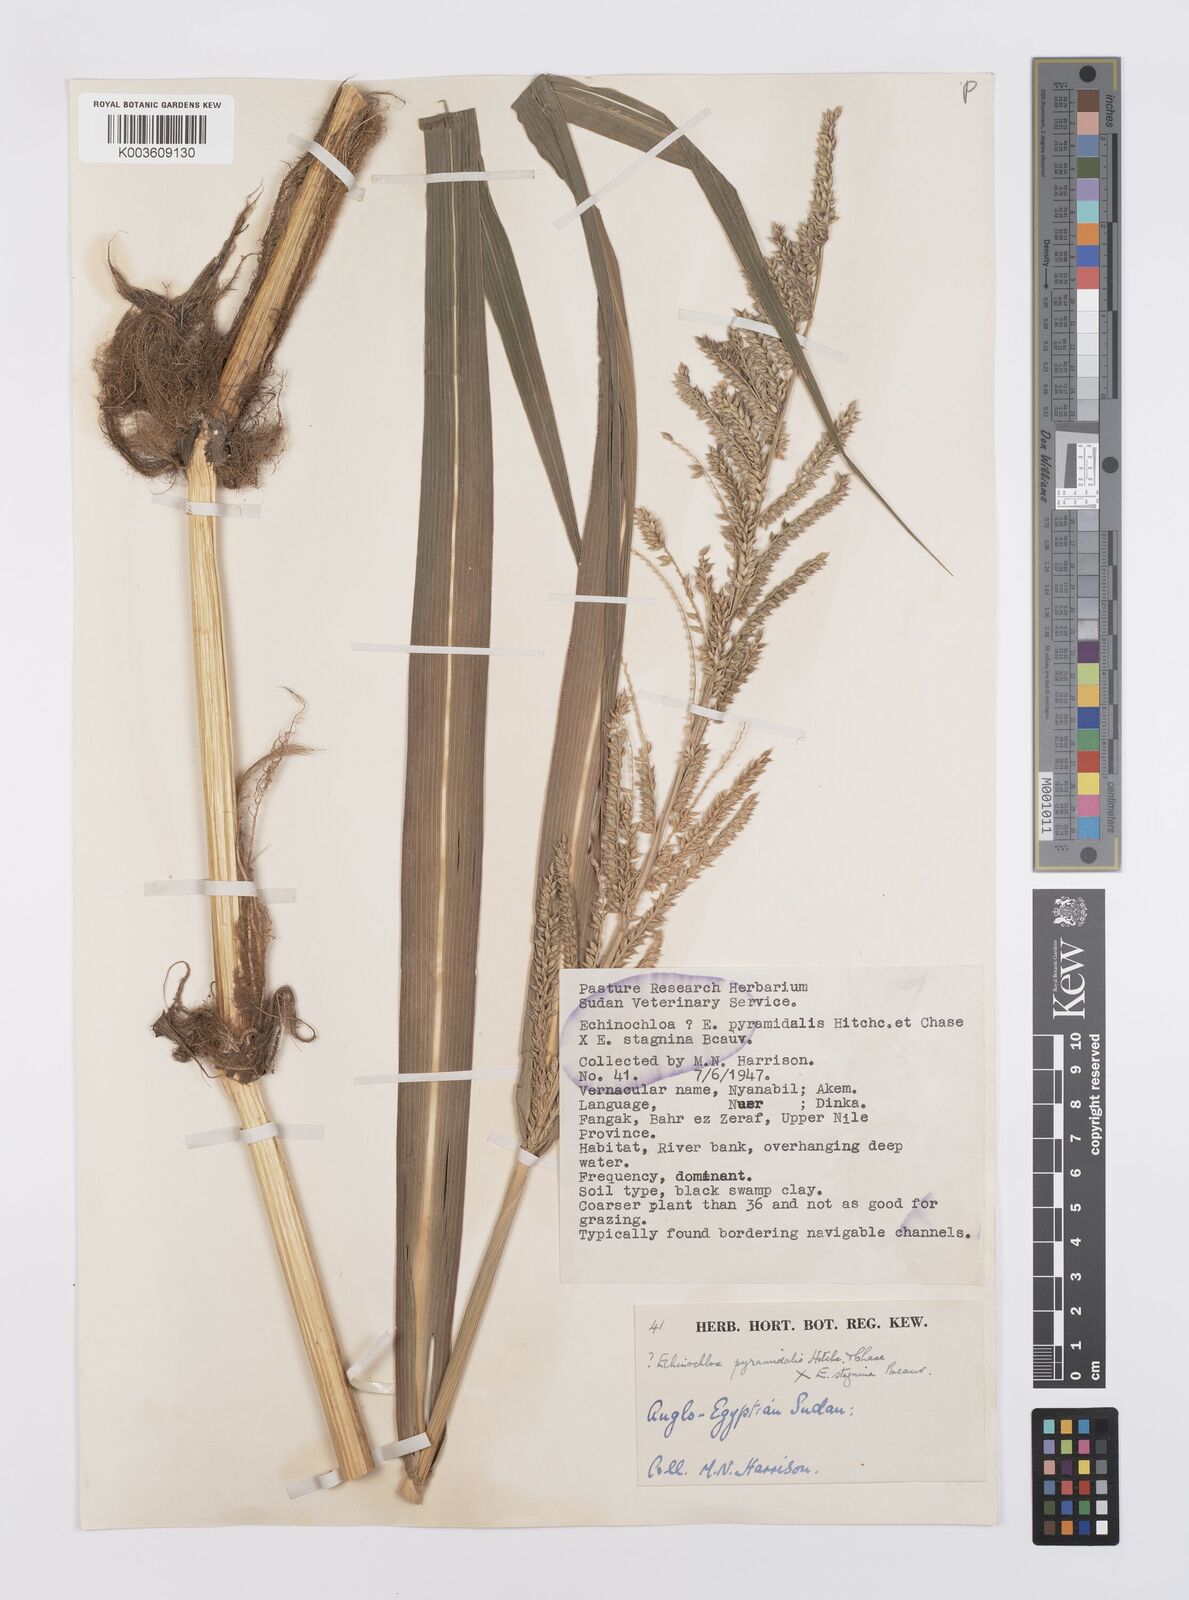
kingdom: Plantae
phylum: Tracheophyta
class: Liliopsida
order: Poales
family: Poaceae
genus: Echinochloa
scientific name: Echinochloa pyramidalis
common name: Antelope grass
